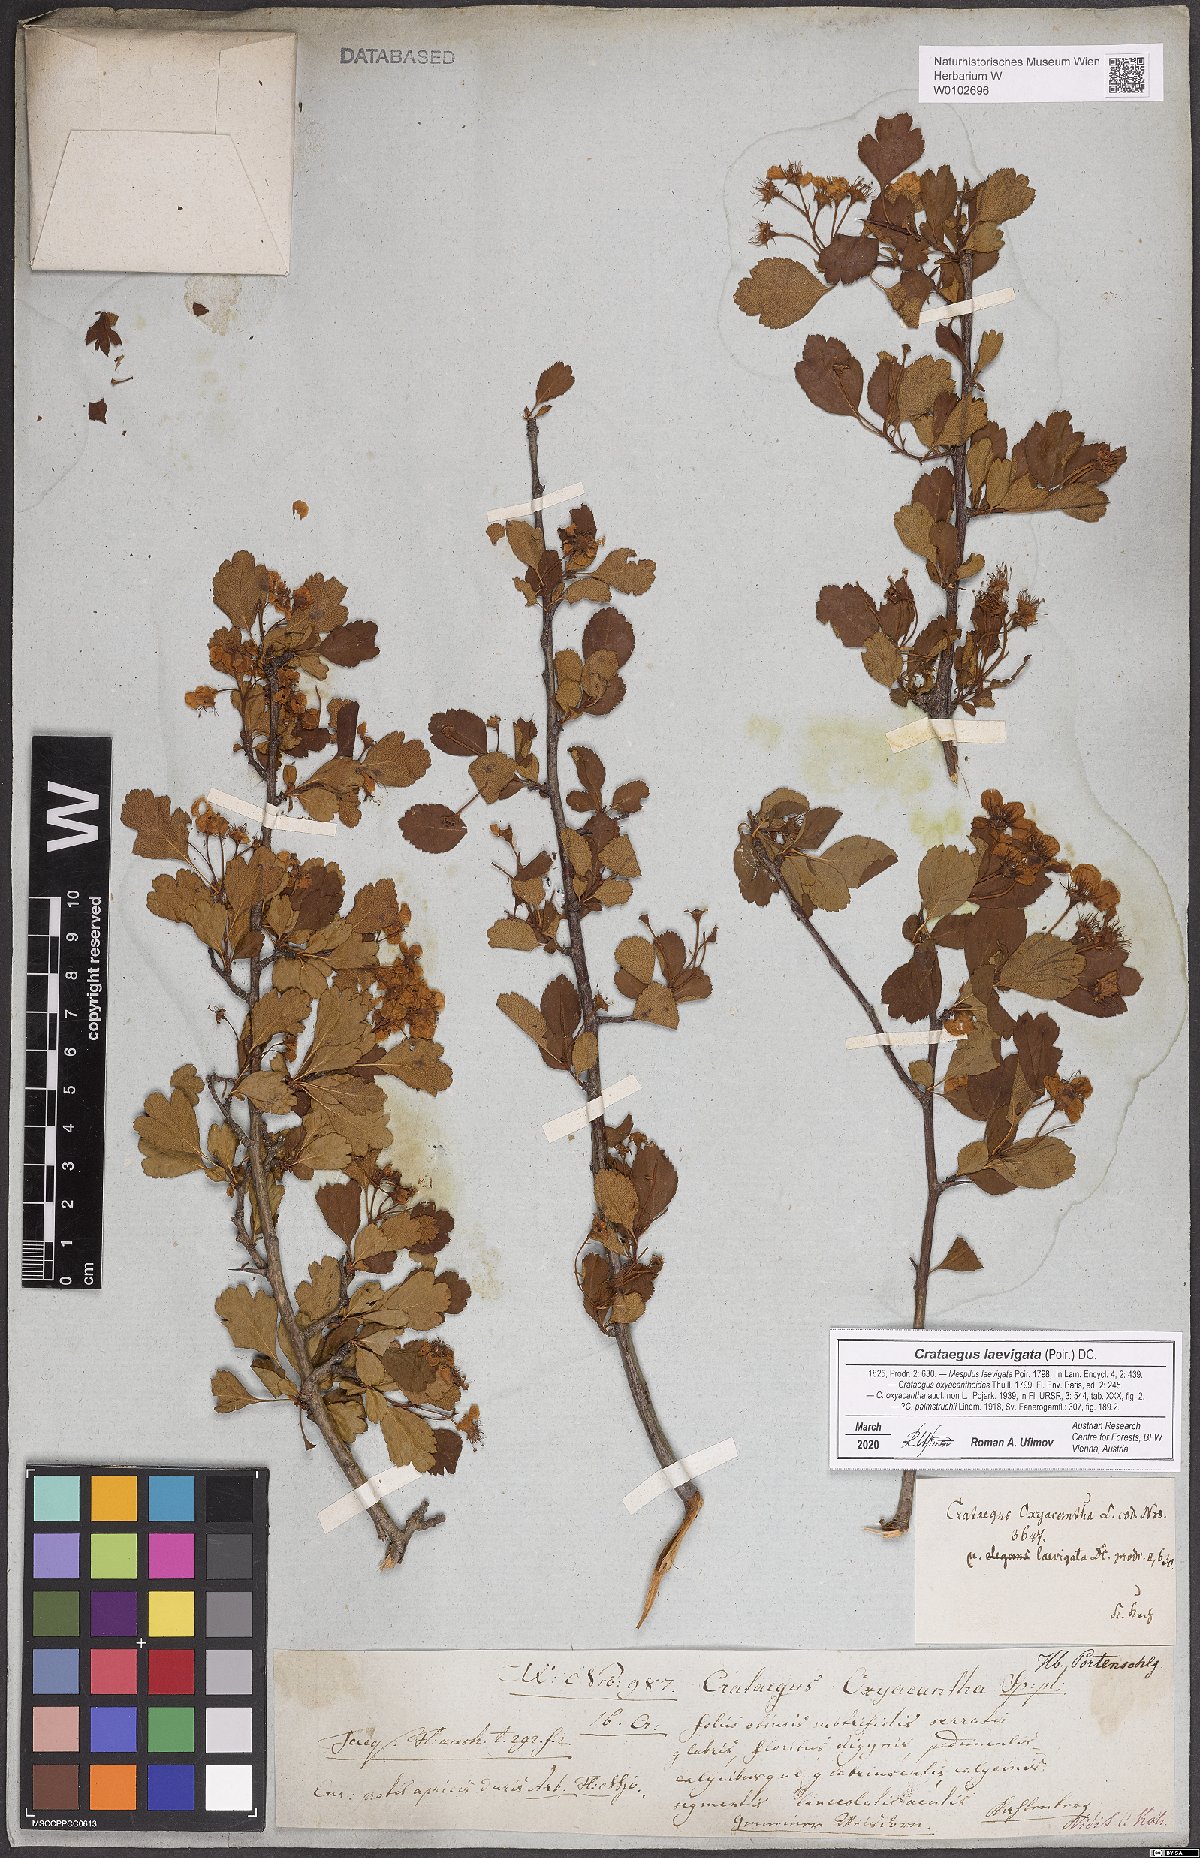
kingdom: Plantae
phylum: Tracheophyta
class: Magnoliopsida
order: Rosales
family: Rosaceae
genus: Crataegus
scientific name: Crataegus laevigata
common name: Midland hawthorn
